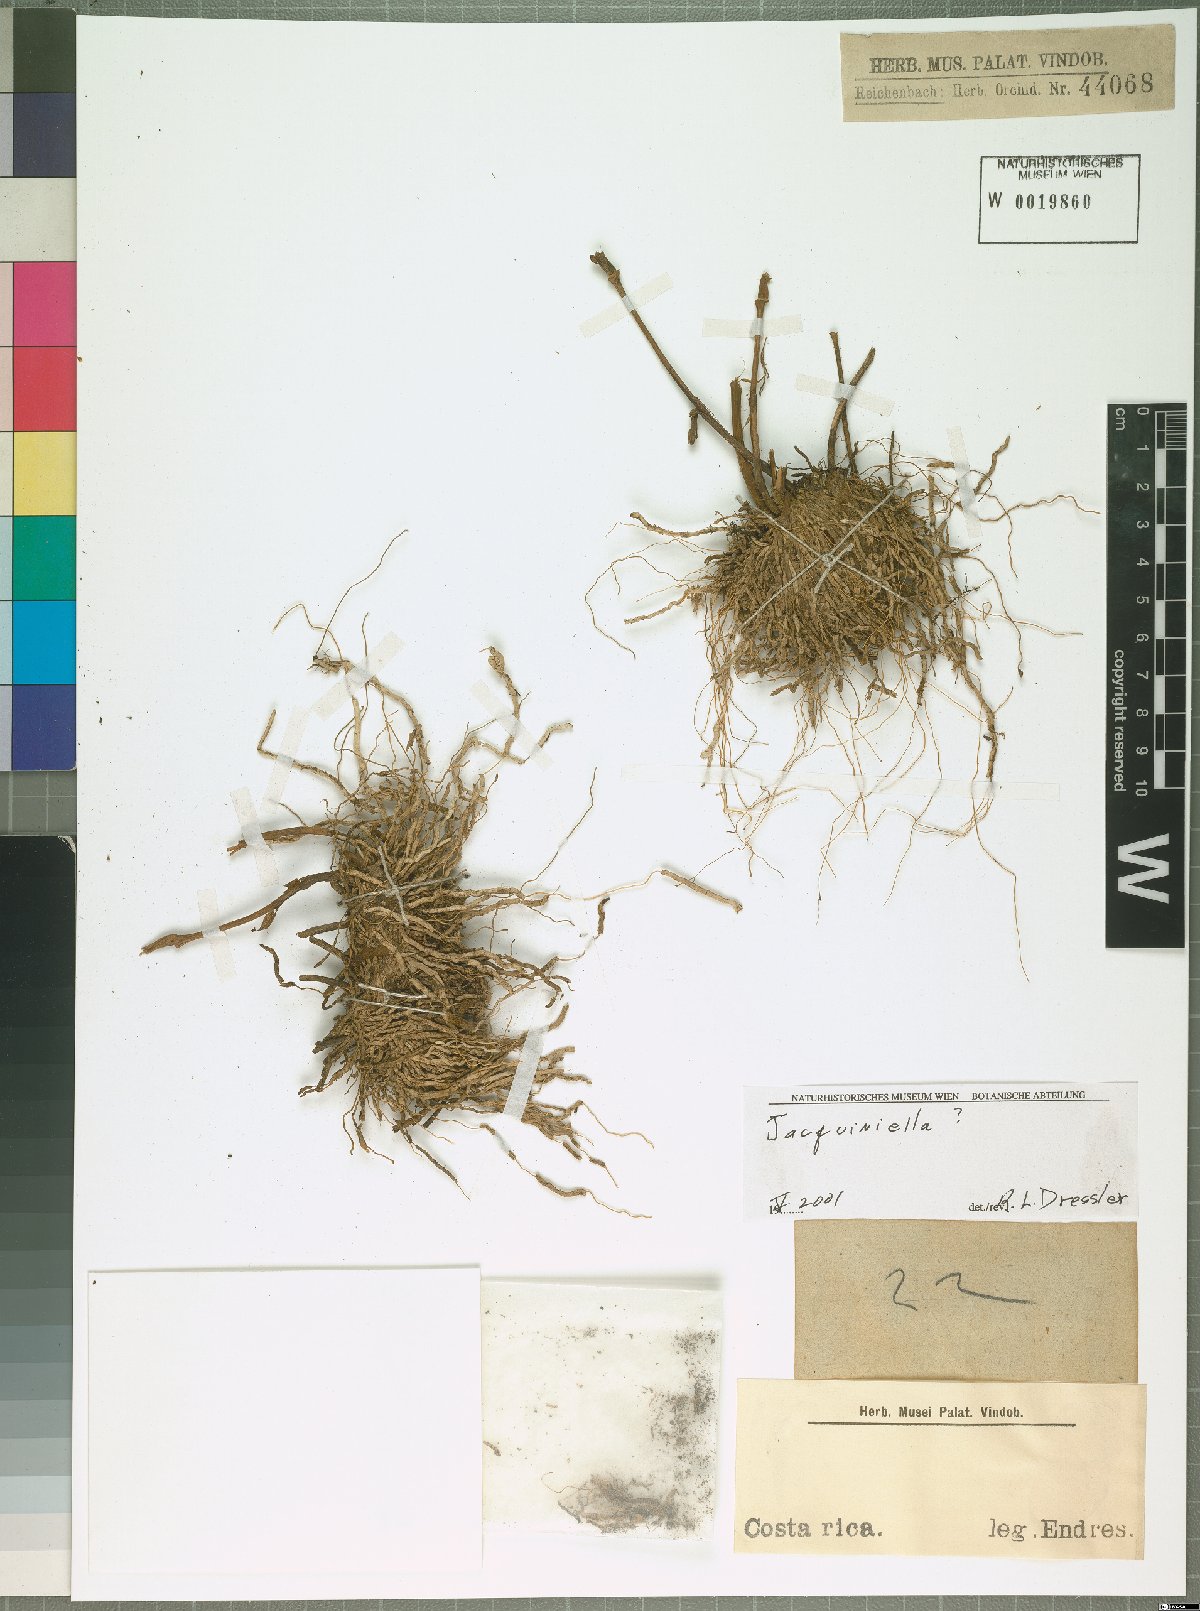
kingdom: Plantae
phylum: Tracheophyta
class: Liliopsida
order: Asparagales
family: Orchidaceae
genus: Jacquiniella
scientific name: Jacquiniella
